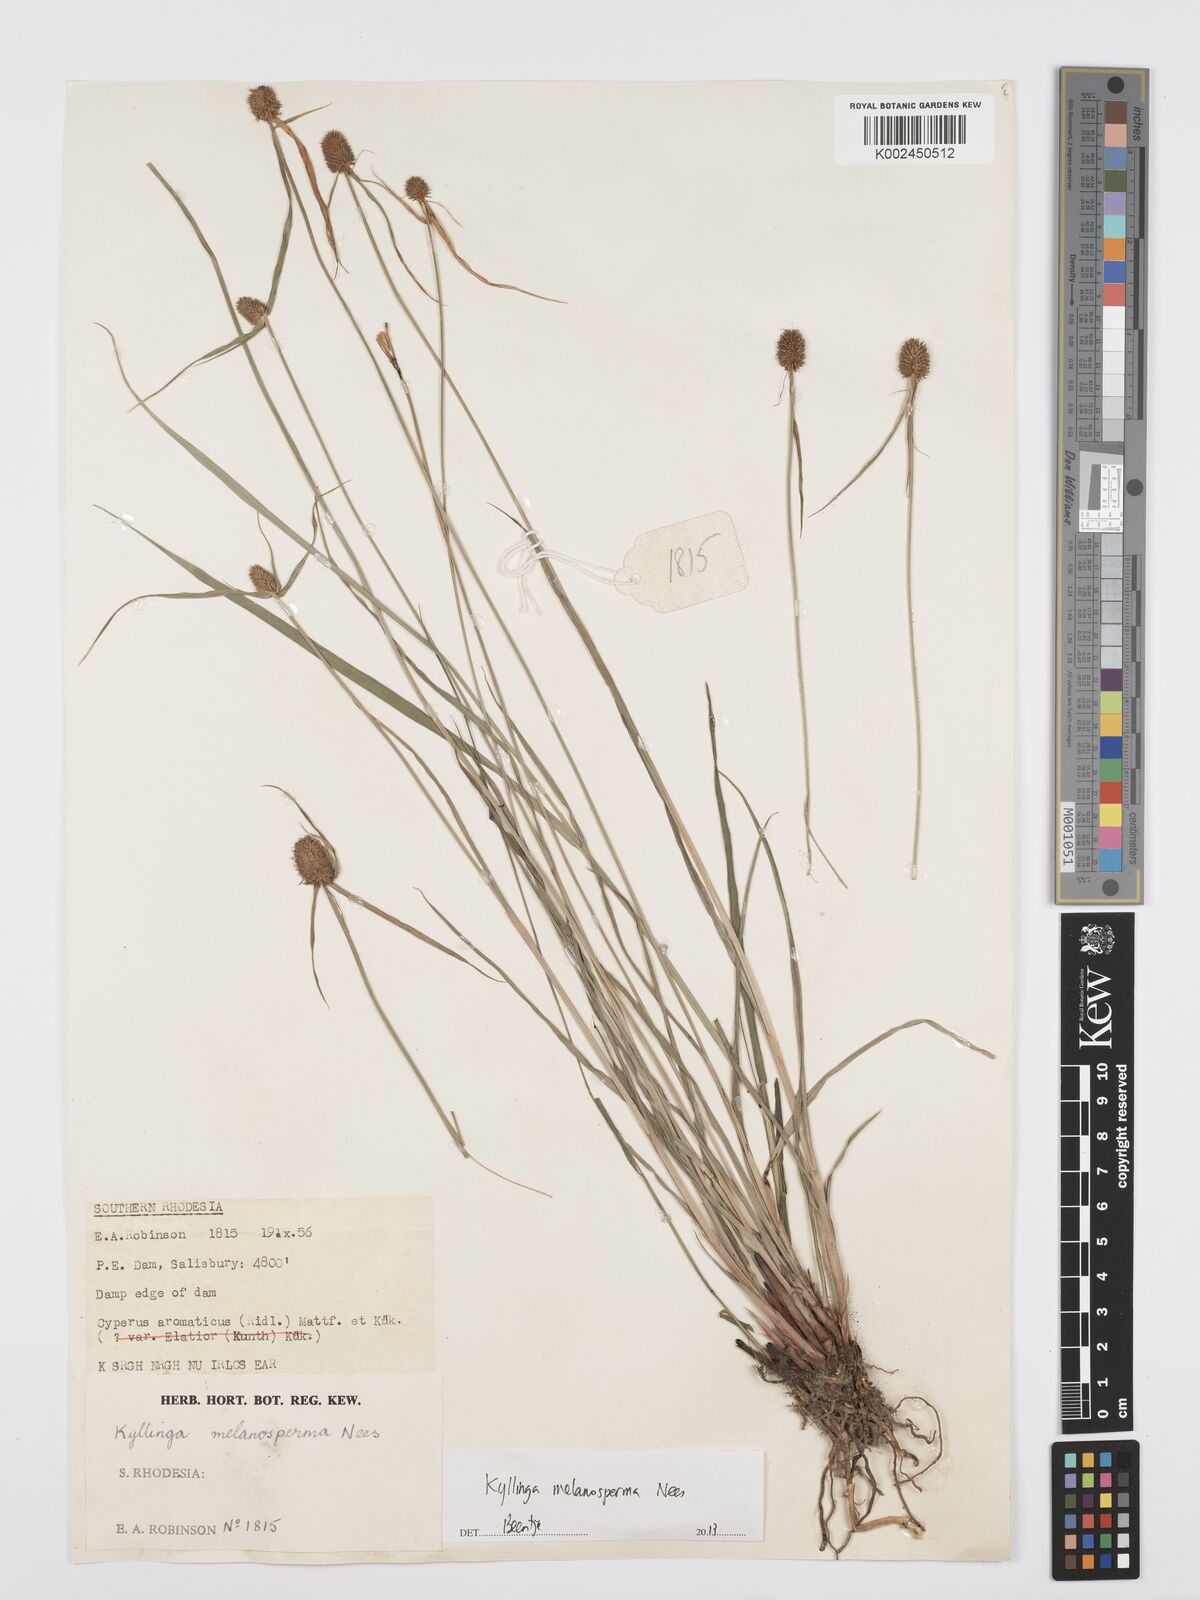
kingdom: Plantae
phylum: Tracheophyta
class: Liliopsida
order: Poales
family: Cyperaceae
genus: Cyperus
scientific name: Cyperus melanospermus
